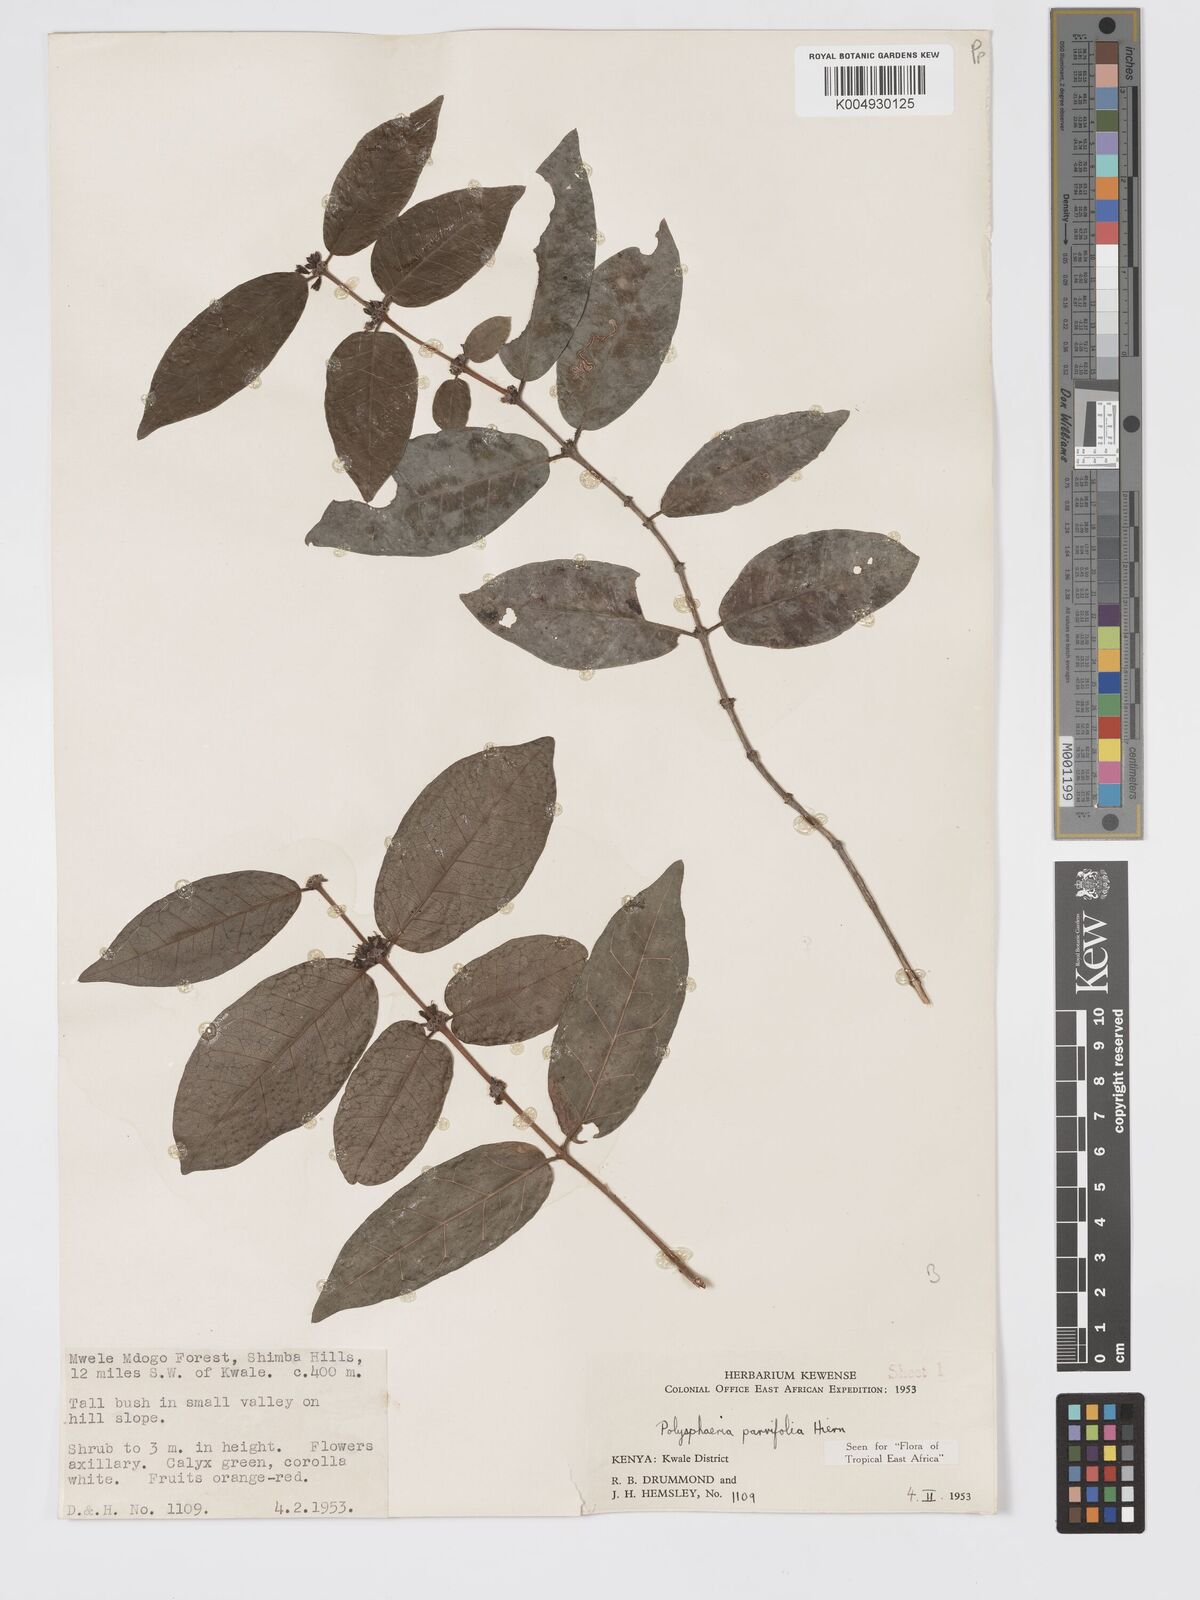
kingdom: Plantae
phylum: Tracheophyta
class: Magnoliopsida
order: Gentianales
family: Rubiaceae
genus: Polysphaeria
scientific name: Polysphaeria parvifolia
